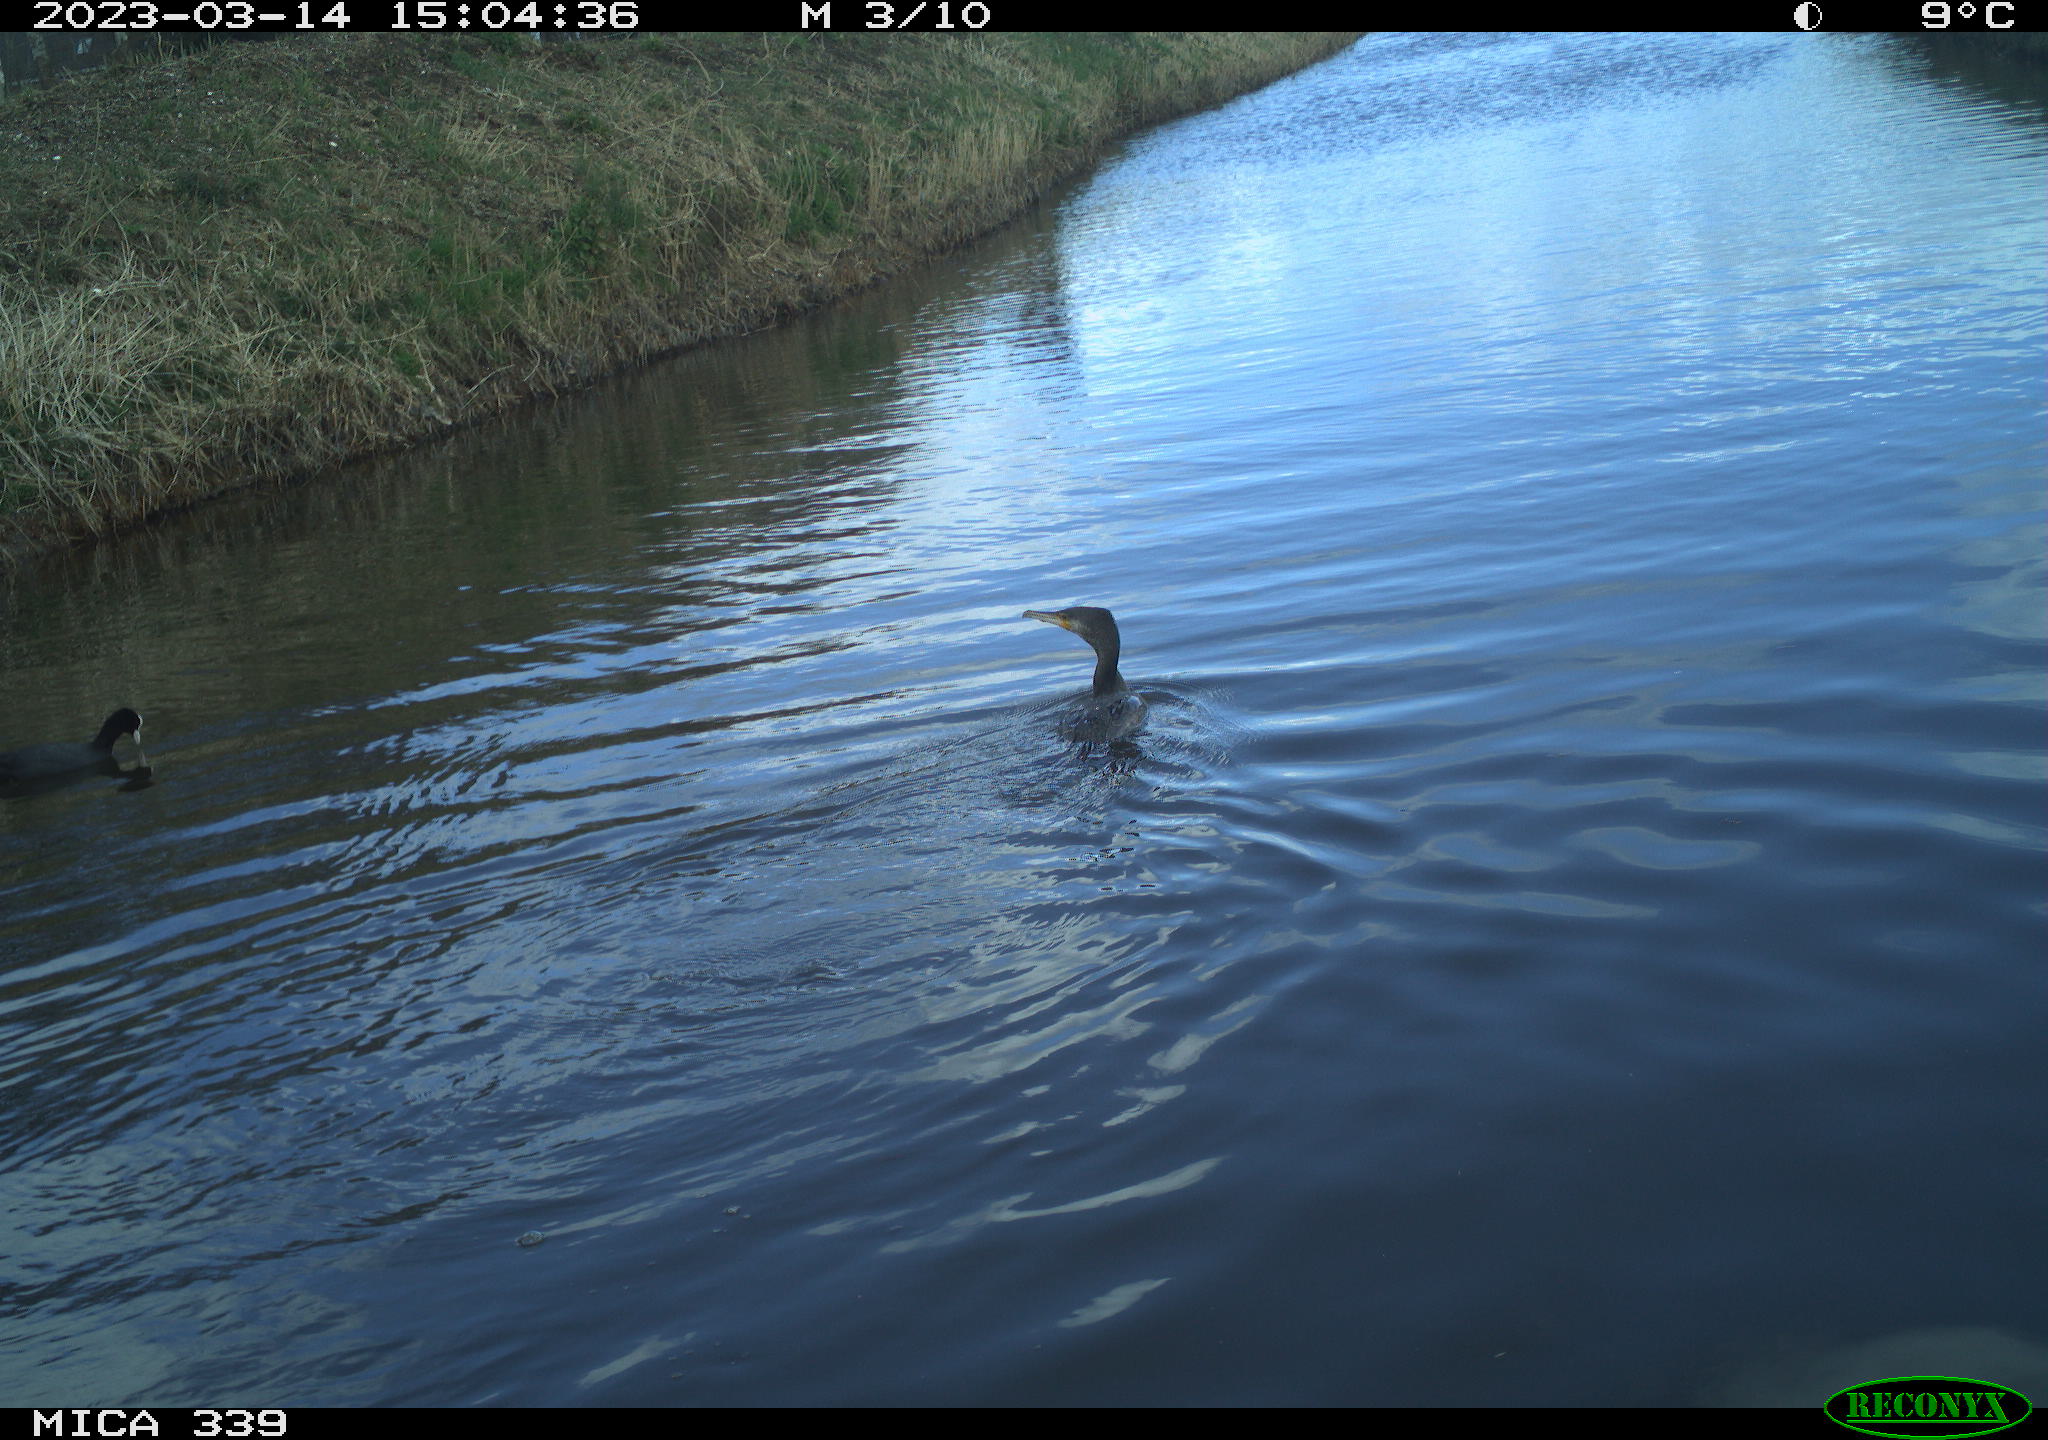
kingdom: Animalia
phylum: Chordata
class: Aves
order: Gruiformes
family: Rallidae
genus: Fulica
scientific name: Fulica atra
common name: Eurasian coot
